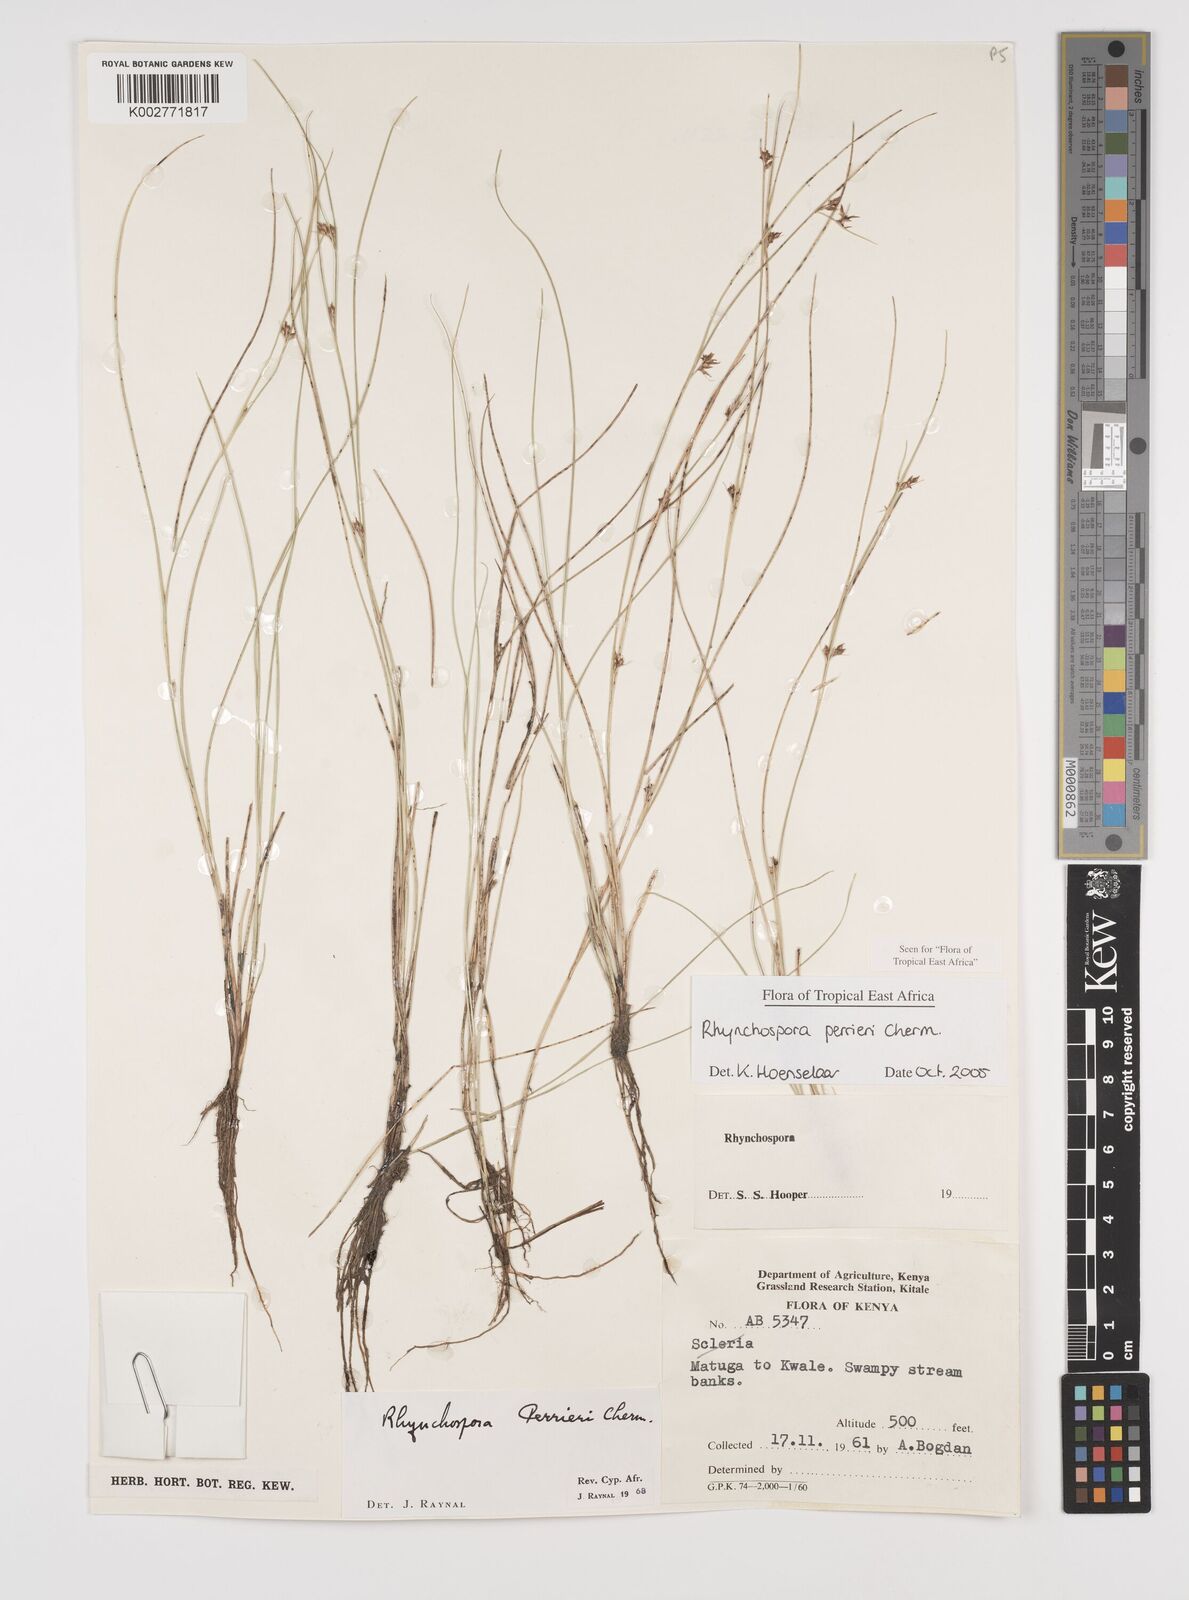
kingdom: Plantae
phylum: Tracheophyta
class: Liliopsida
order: Poales
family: Cyperaceae
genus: Rhynchospora
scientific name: Rhynchospora perrieri
